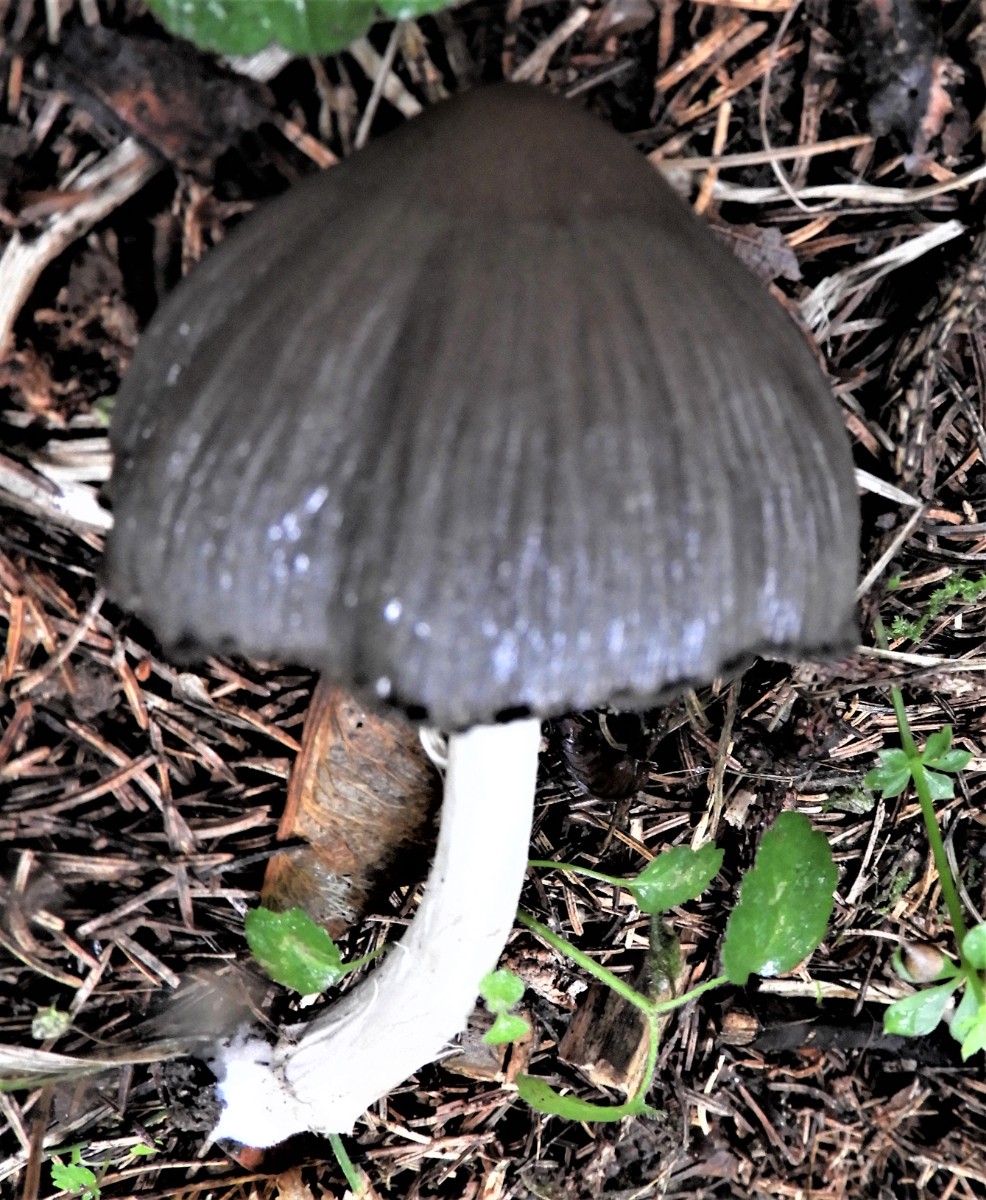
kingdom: Fungi
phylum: Basidiomycota
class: Agaricomycetes
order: Agaricales
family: Psathyrellaceae
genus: Coprinopsis
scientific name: Coprinopsis atramentaria
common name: almindelig blækhat
